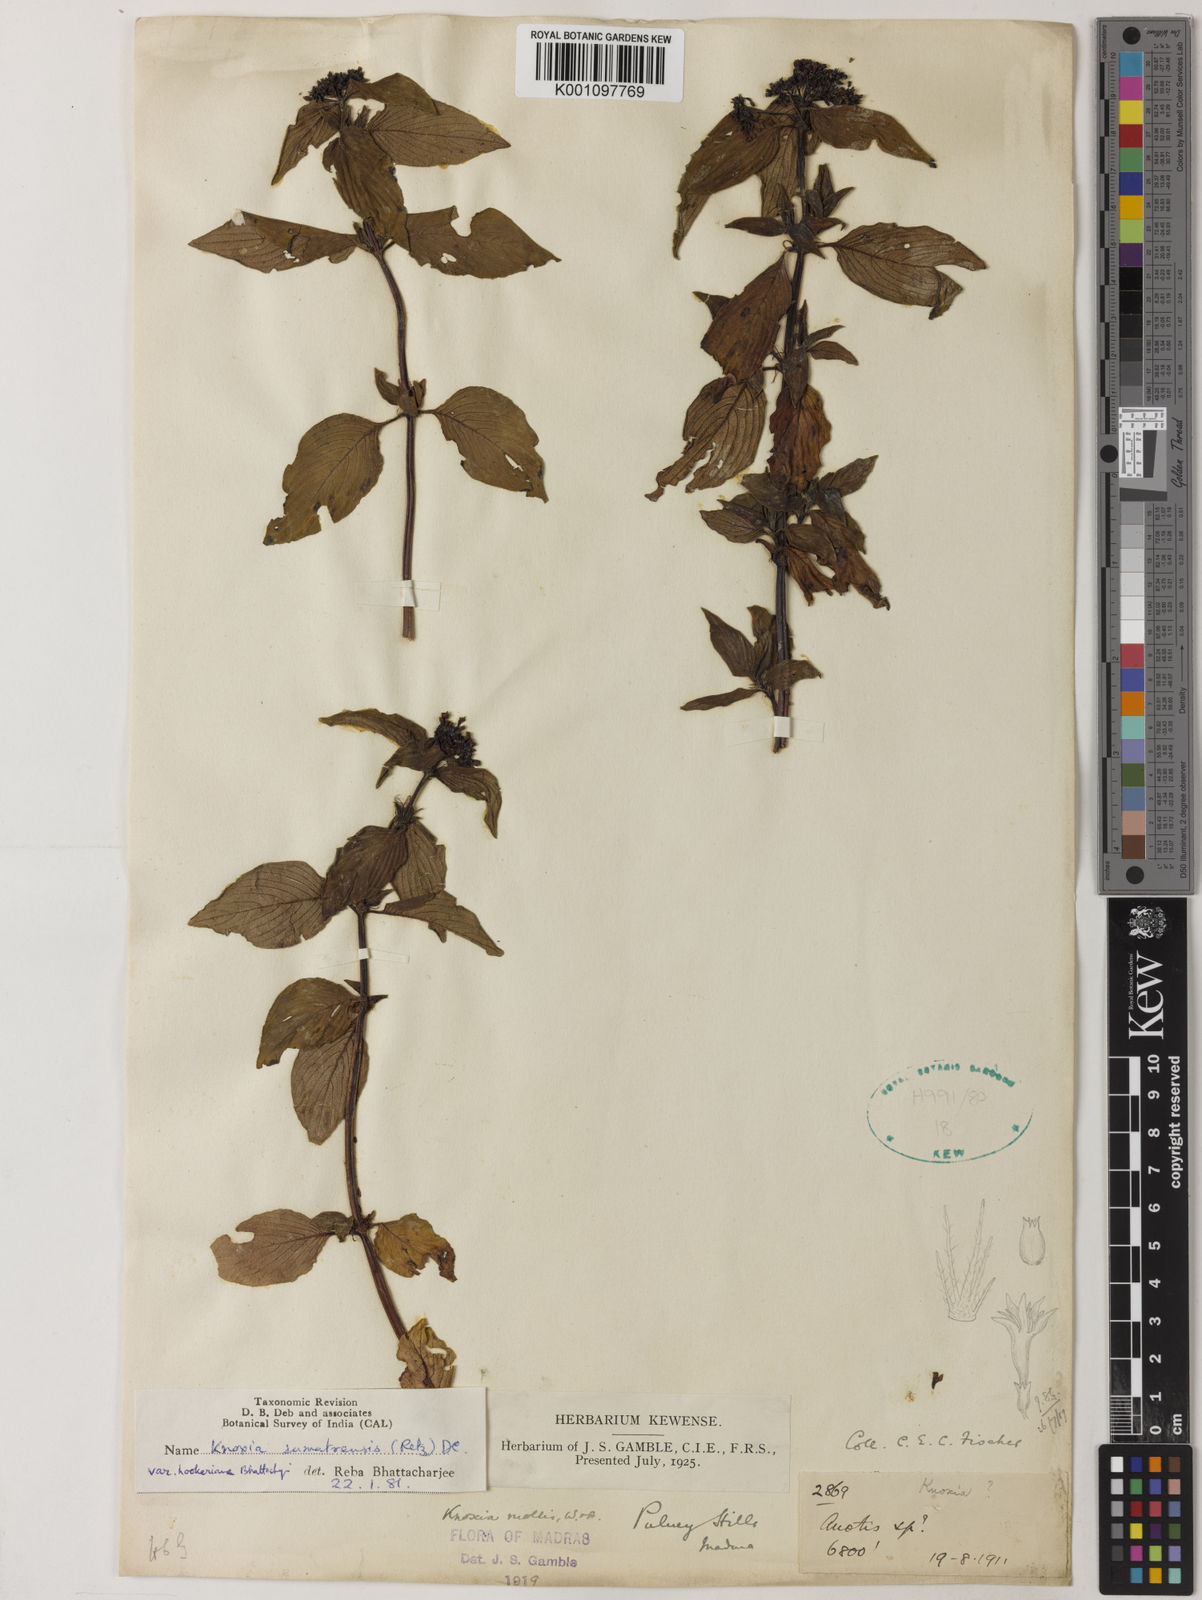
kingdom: Plantae
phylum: Tracheophyta
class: Magnoliopsida
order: Gentianales
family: Rubiaceae
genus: Knoxia
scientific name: Knoxia sumatrensis
